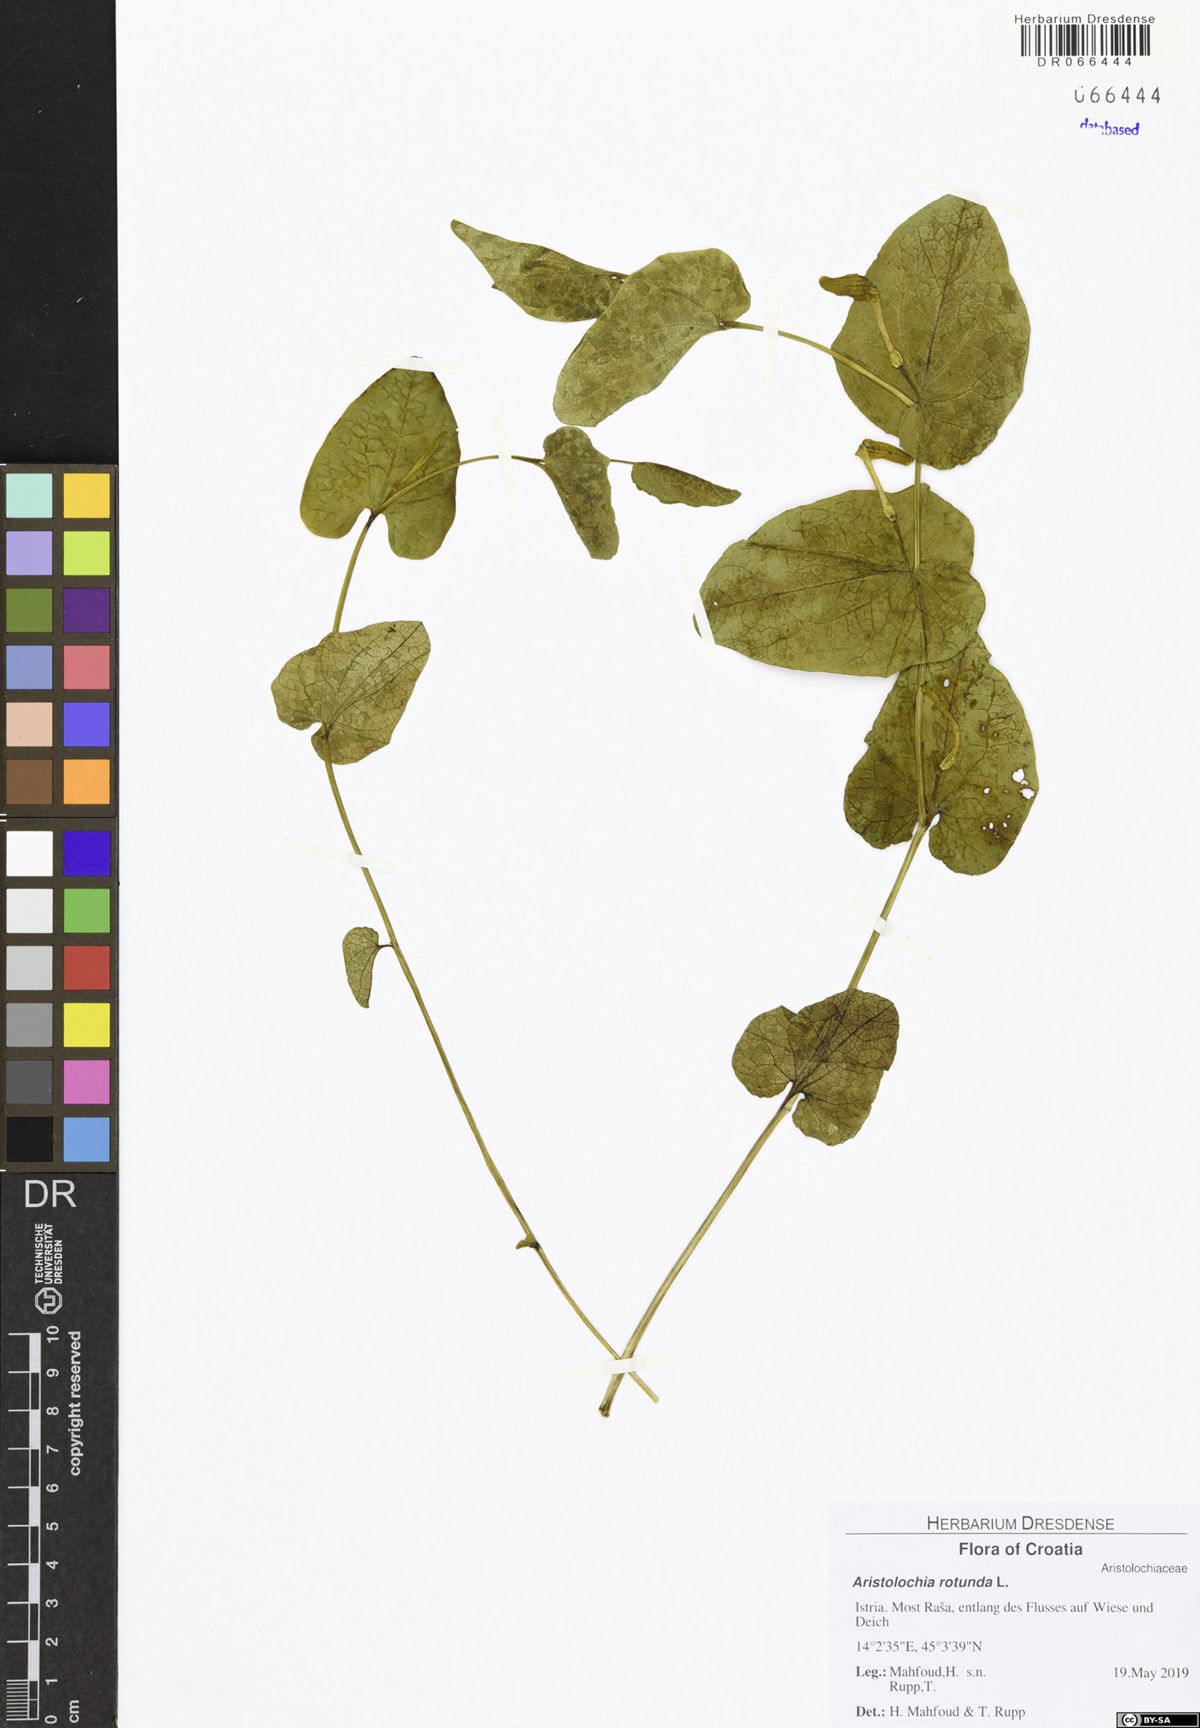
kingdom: Plantae
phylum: Tracheophyta
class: Magnoliopsida
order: Piperales
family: Aristolochiaceae
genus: Aristolochia
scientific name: Aristolochia rotunda
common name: Smearwort
